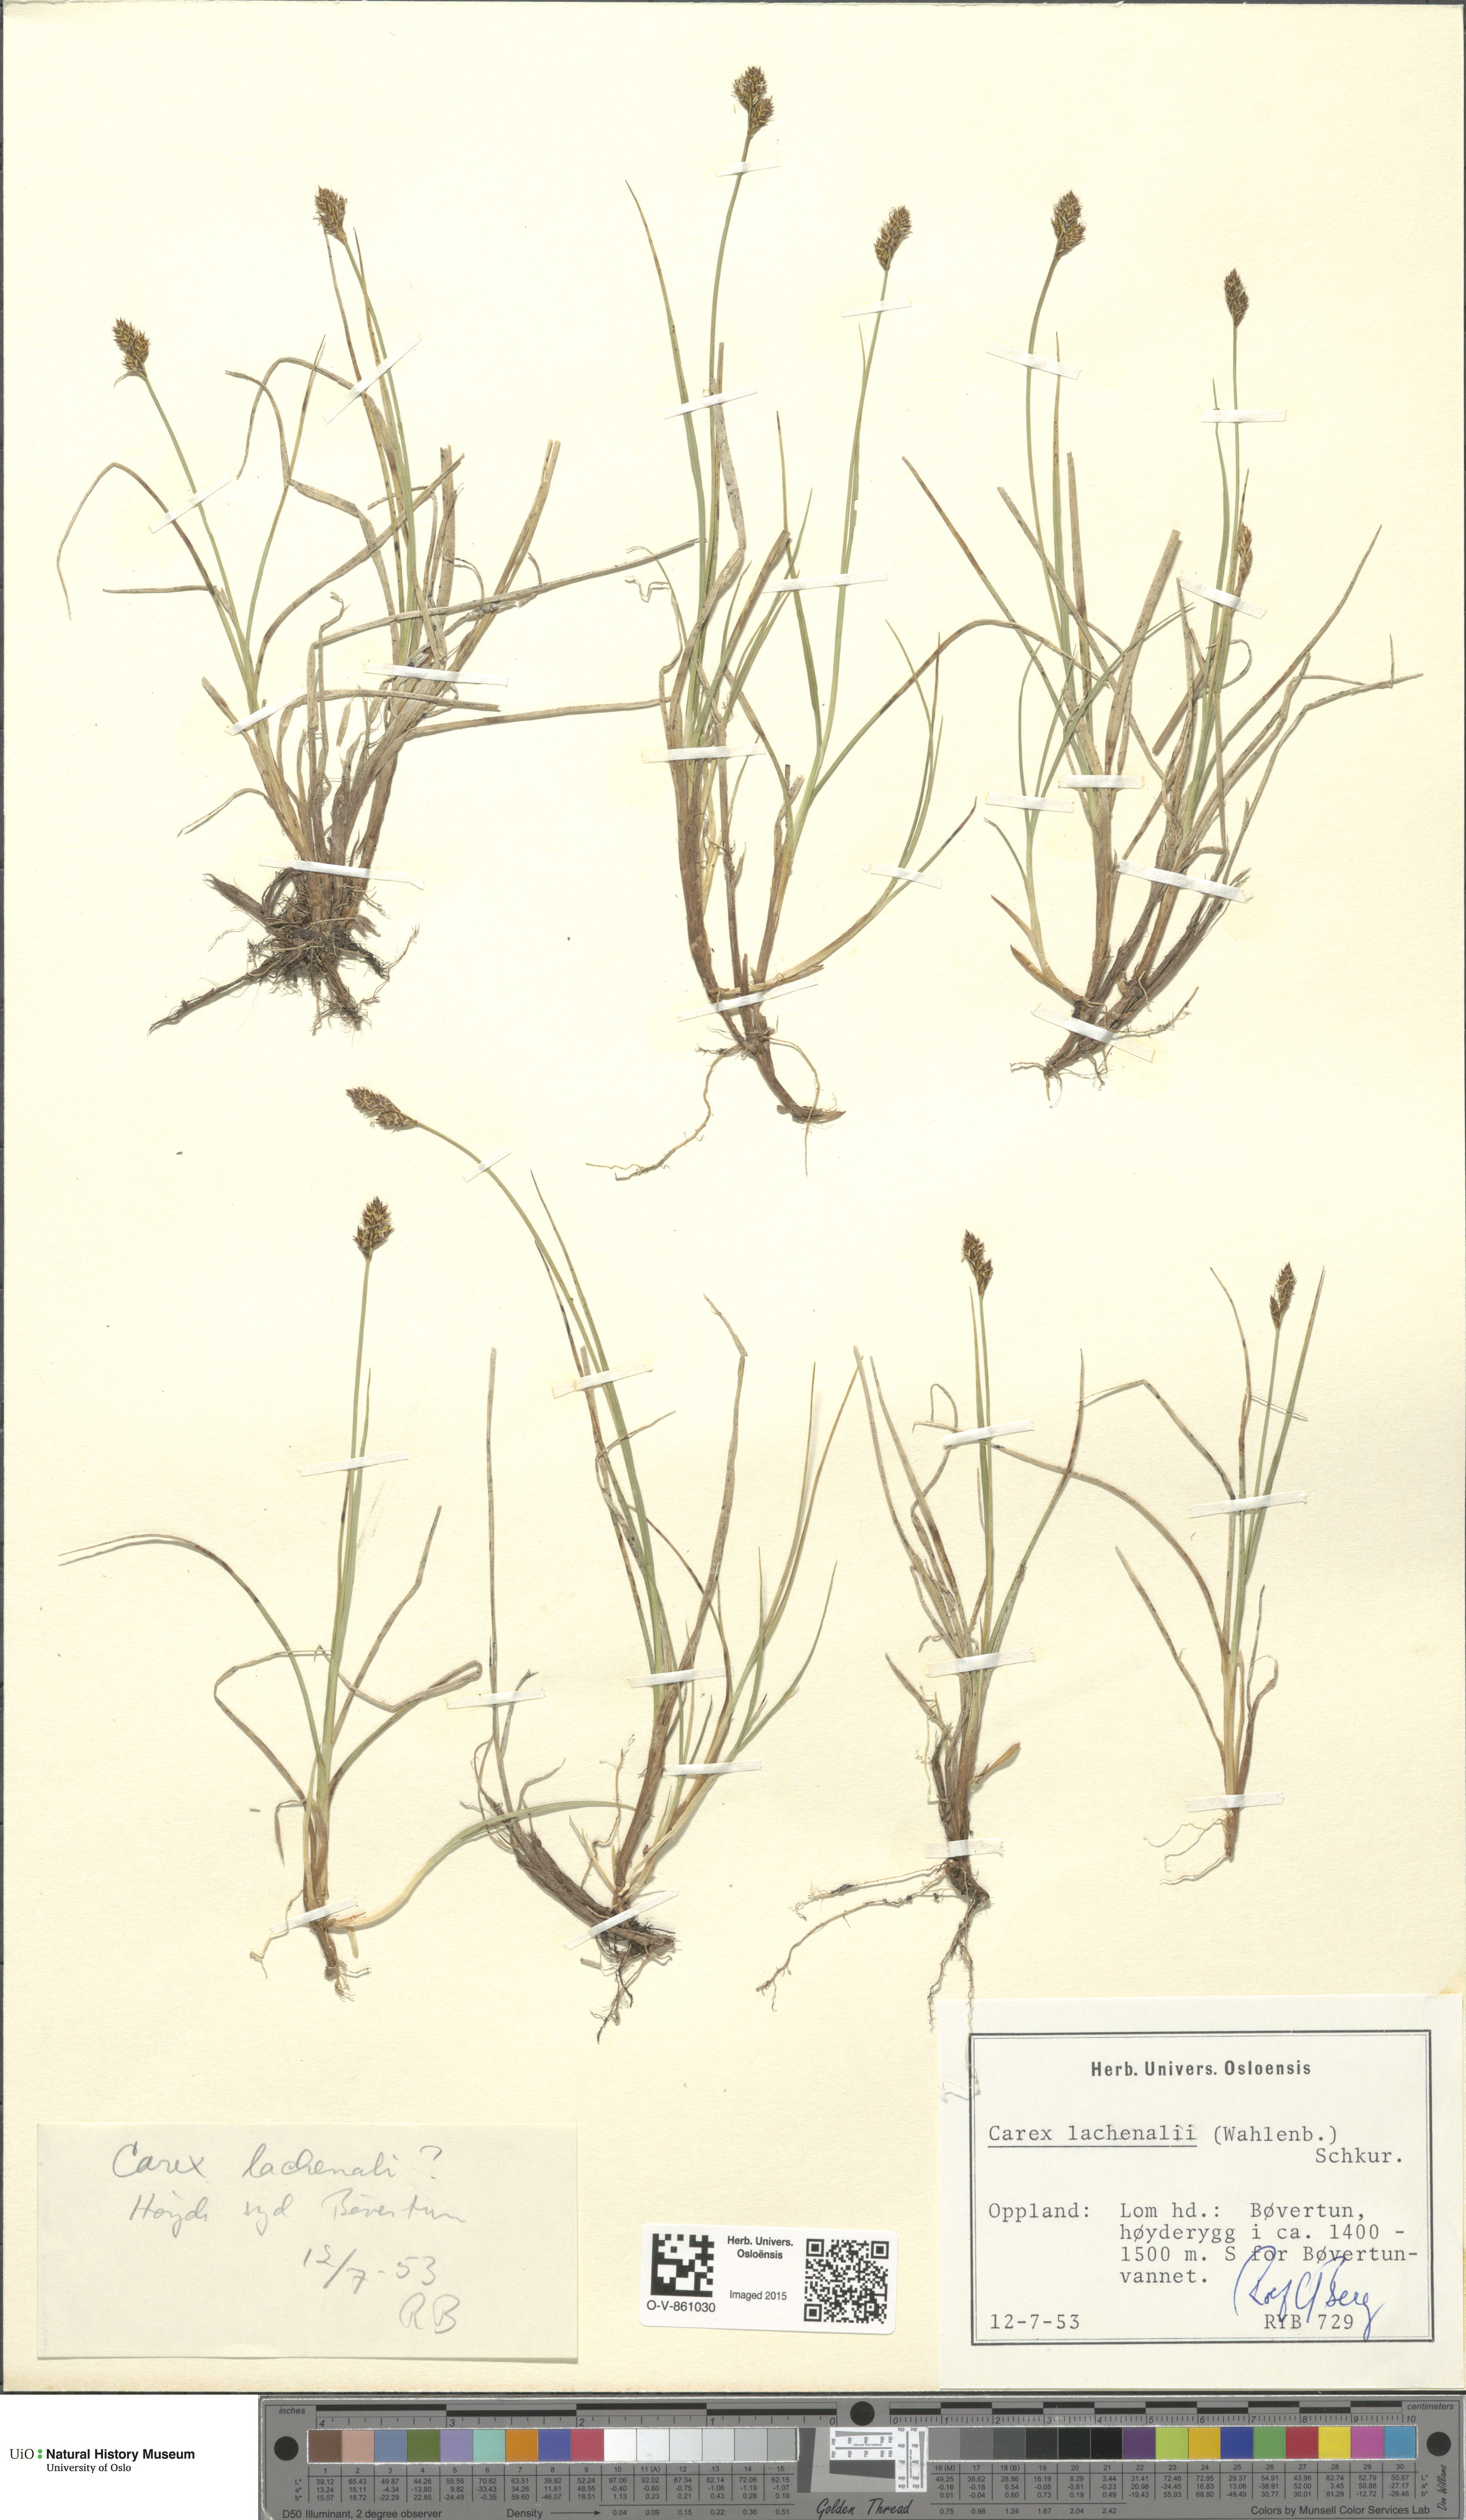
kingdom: Plantae
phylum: Tracheophyta
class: Liliopsida
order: Poales
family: Cyperaceae
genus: Carex
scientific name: Carex lachenalii
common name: Hare's-foot sedge
